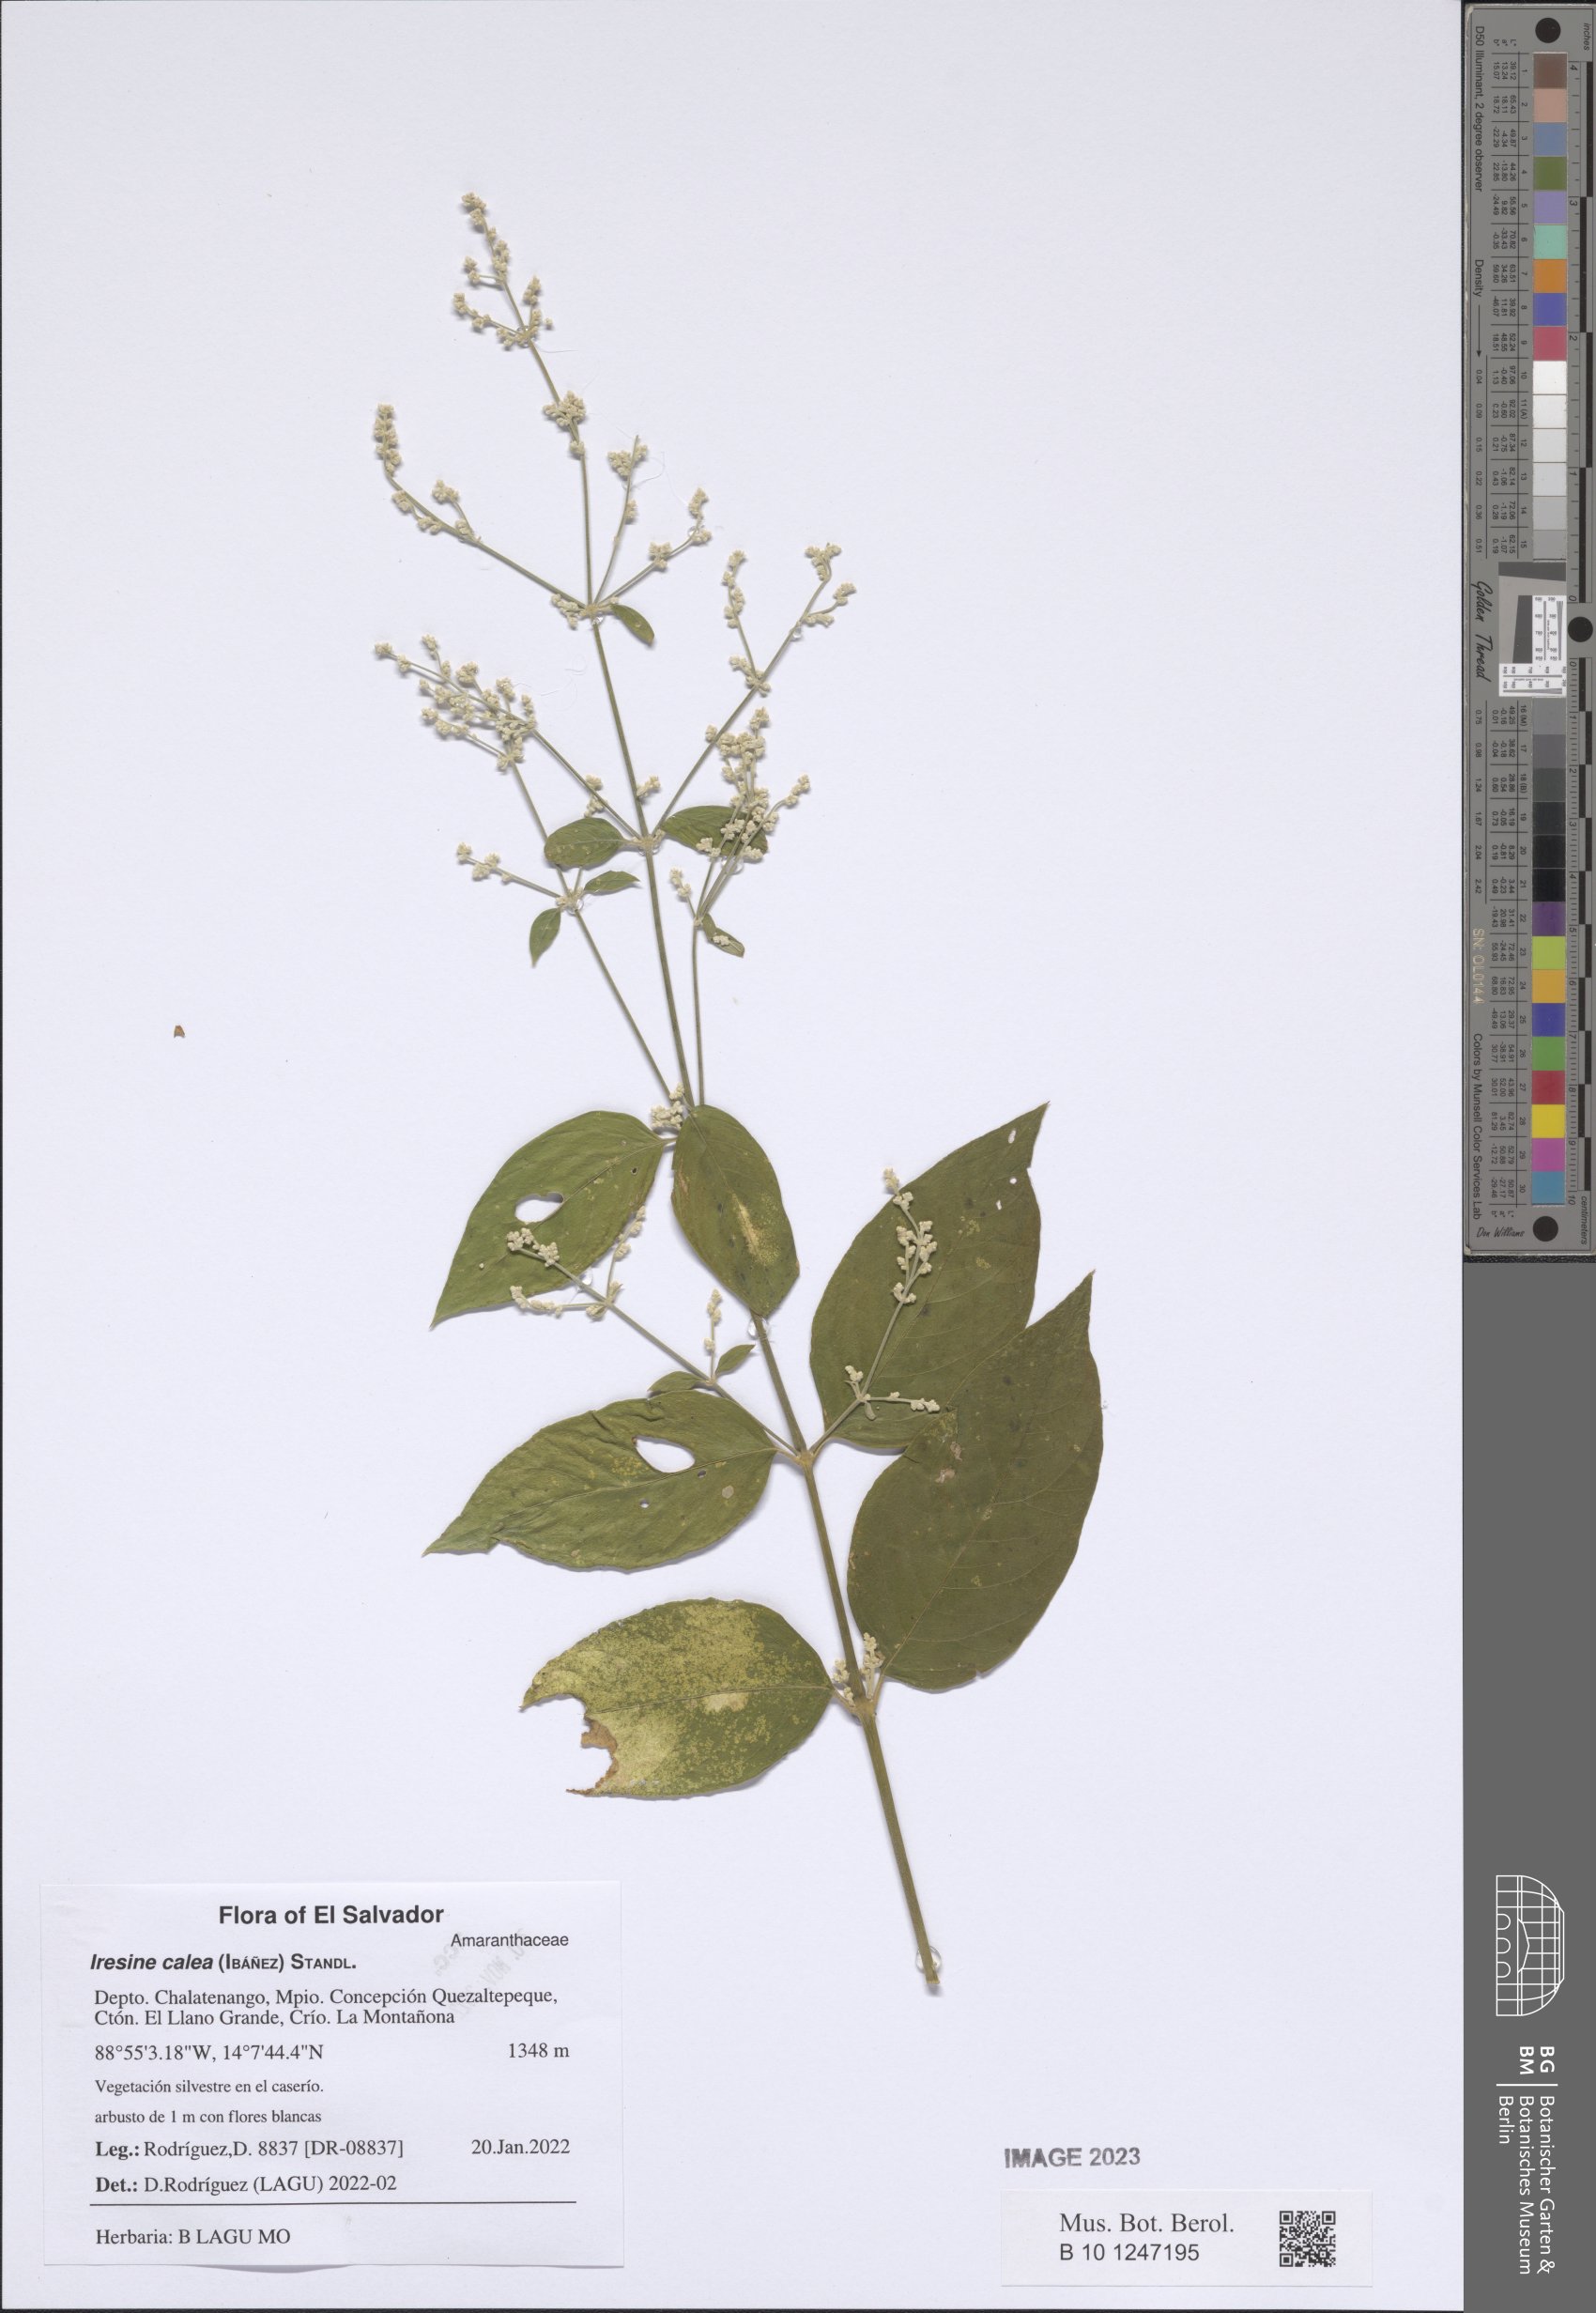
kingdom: Plantae
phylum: Tracheophyta
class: Magnoliopsida
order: Caryophyllales
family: Amaranthaceae
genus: Iresine
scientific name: Iresine latifolia
